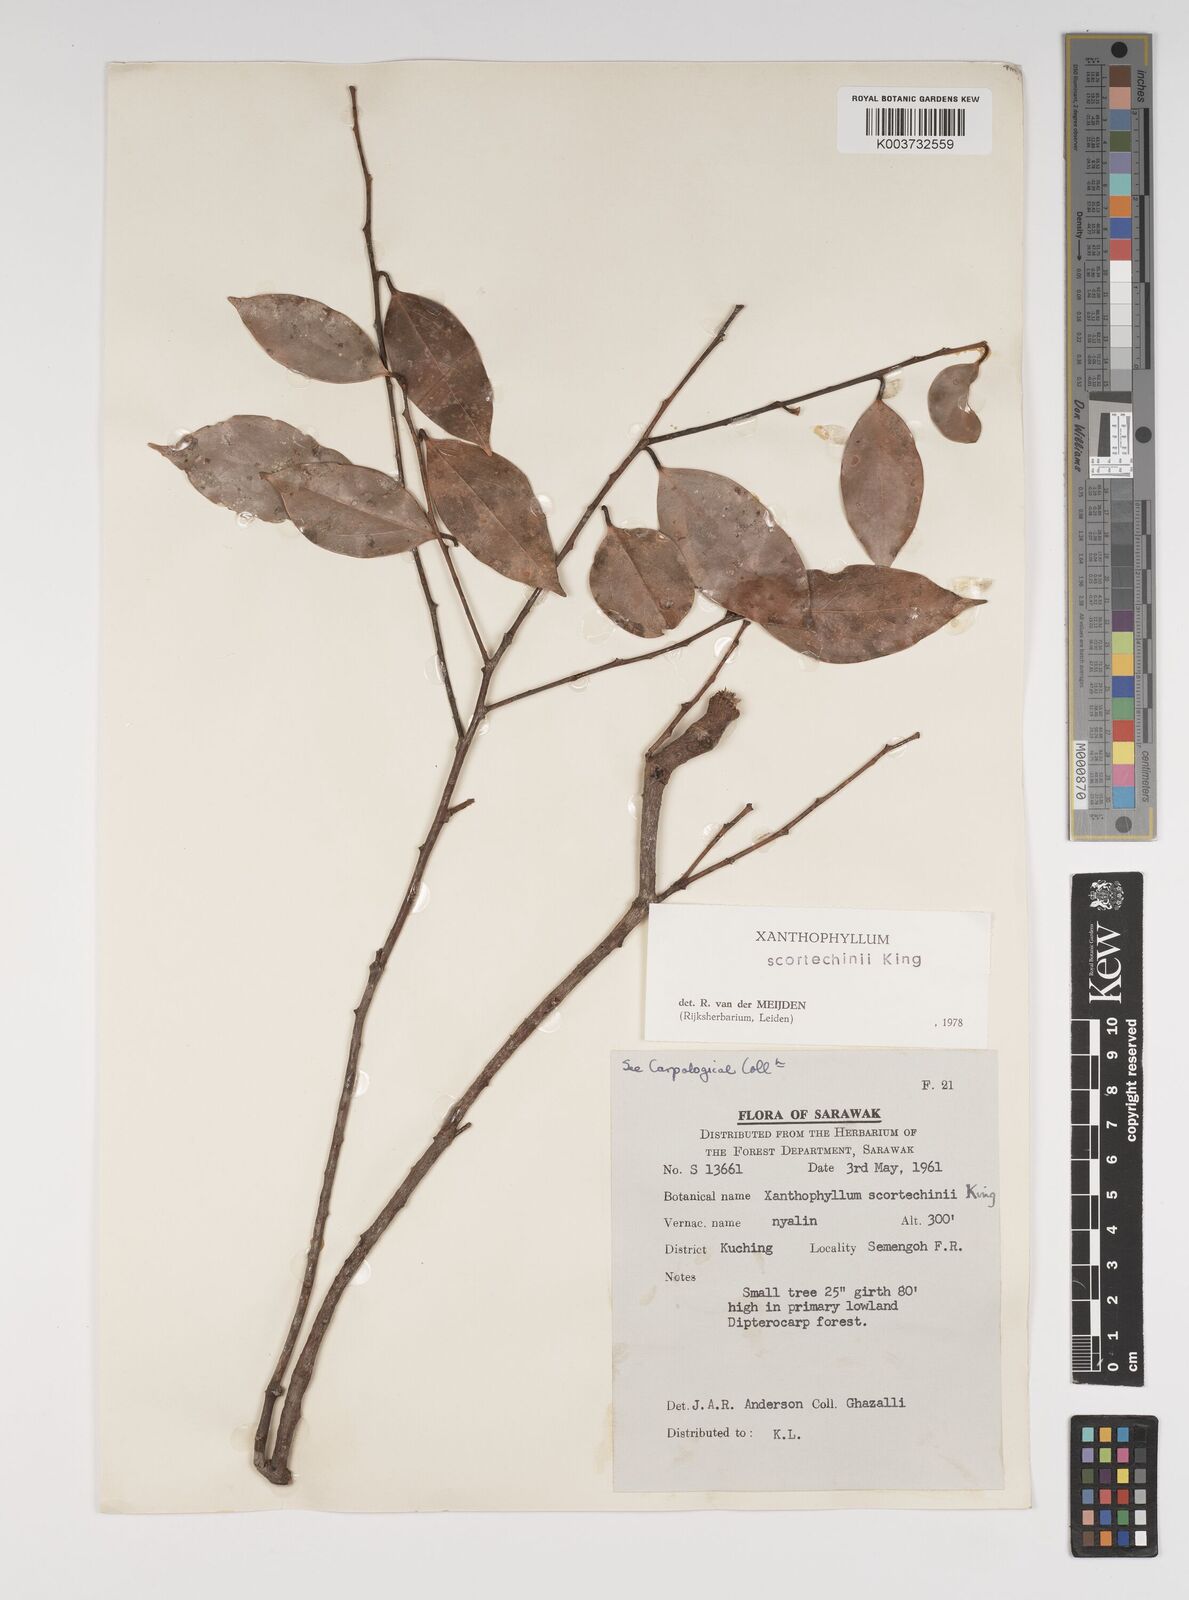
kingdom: Plantae
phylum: Tracheophyta
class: Magnoliopsida
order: Fabales
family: Polygalaceae
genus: Xanthophyllum
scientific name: Xanthophyllum obscurum
